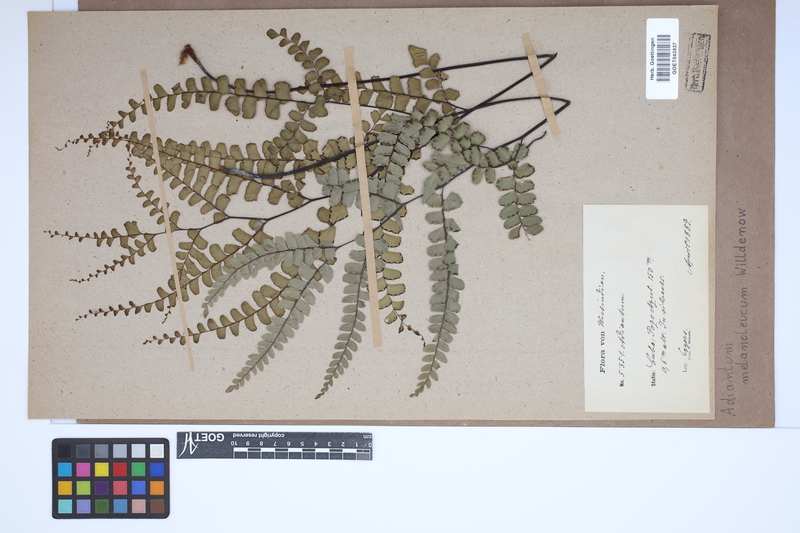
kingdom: Plantae
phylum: Tracheophyta
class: Polypodiopsida
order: Polypodiales
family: Pteridaceae
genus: Adiantum
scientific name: Adiantum melanoleucum
